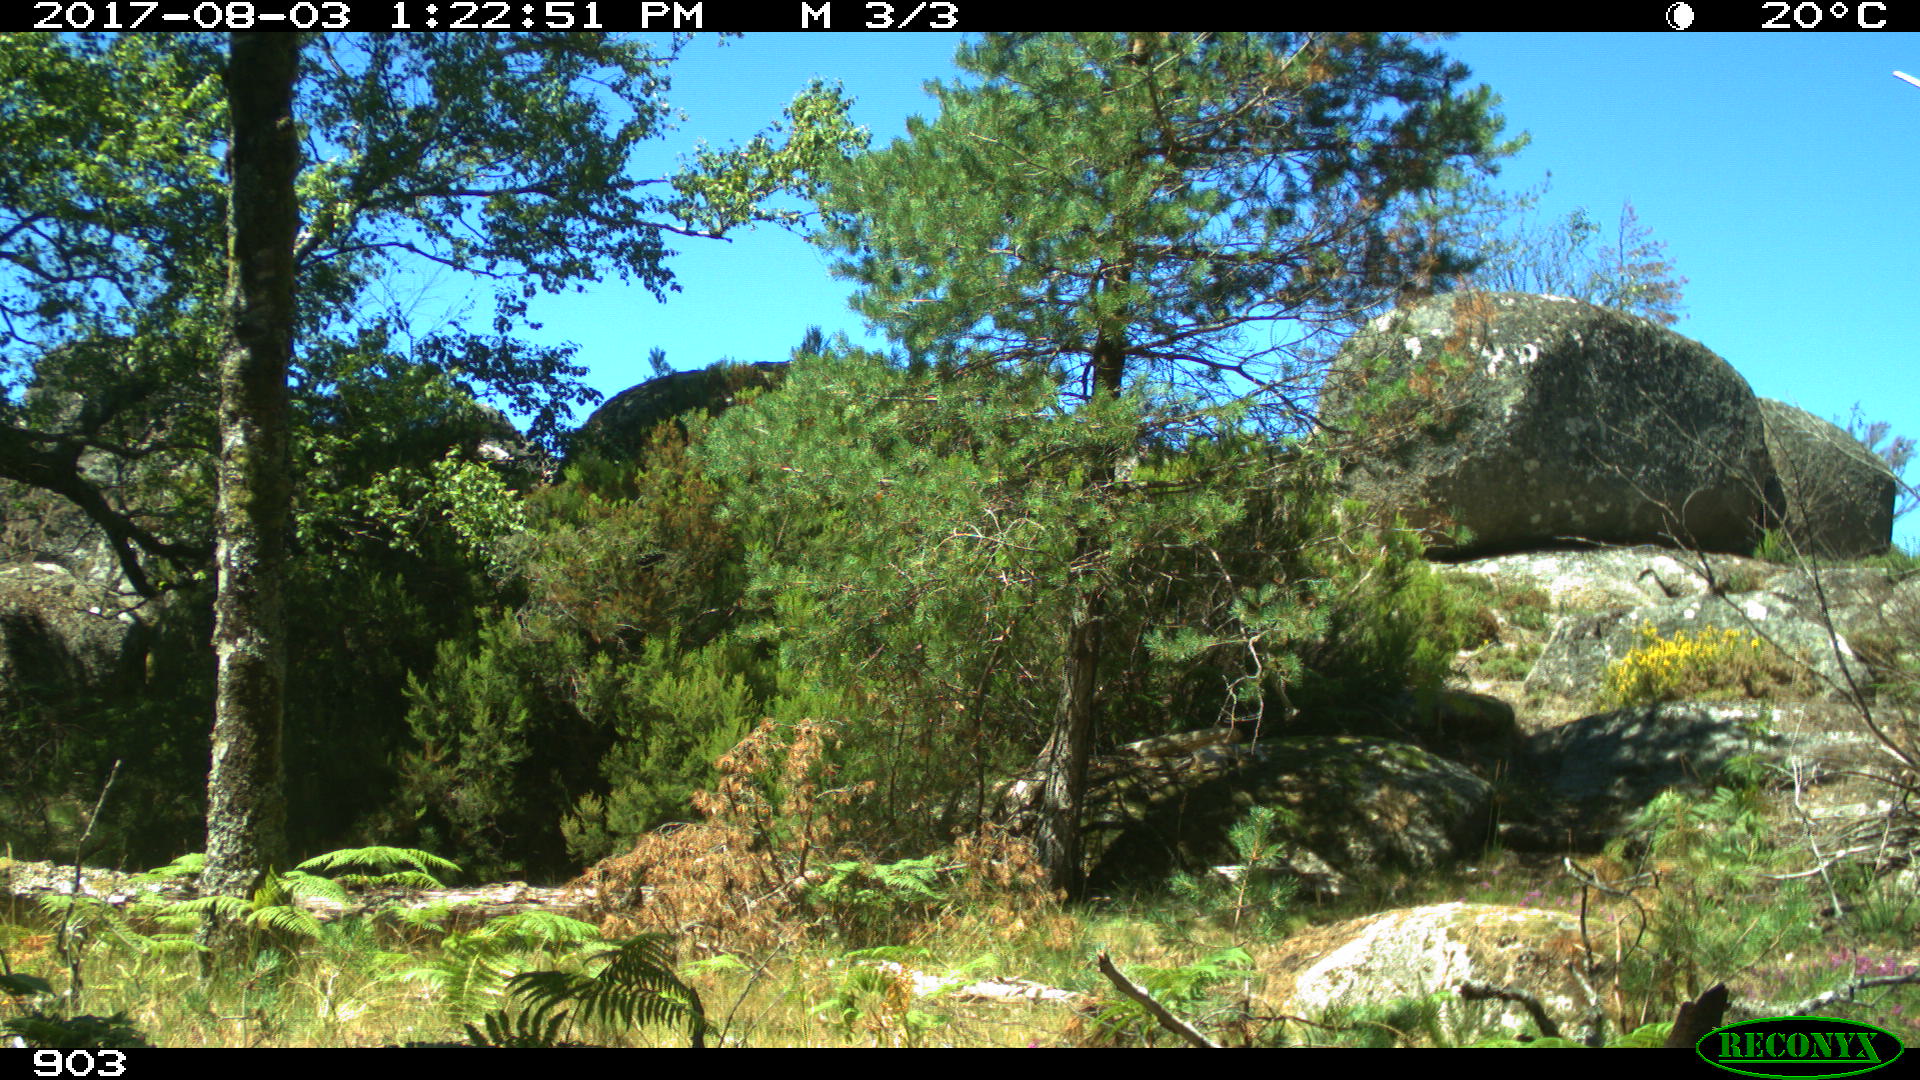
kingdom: Animalia
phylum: Chordata
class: Mammalia
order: Perissodactyla
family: Equidae
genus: Equus
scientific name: Equus caballus
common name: Horse
